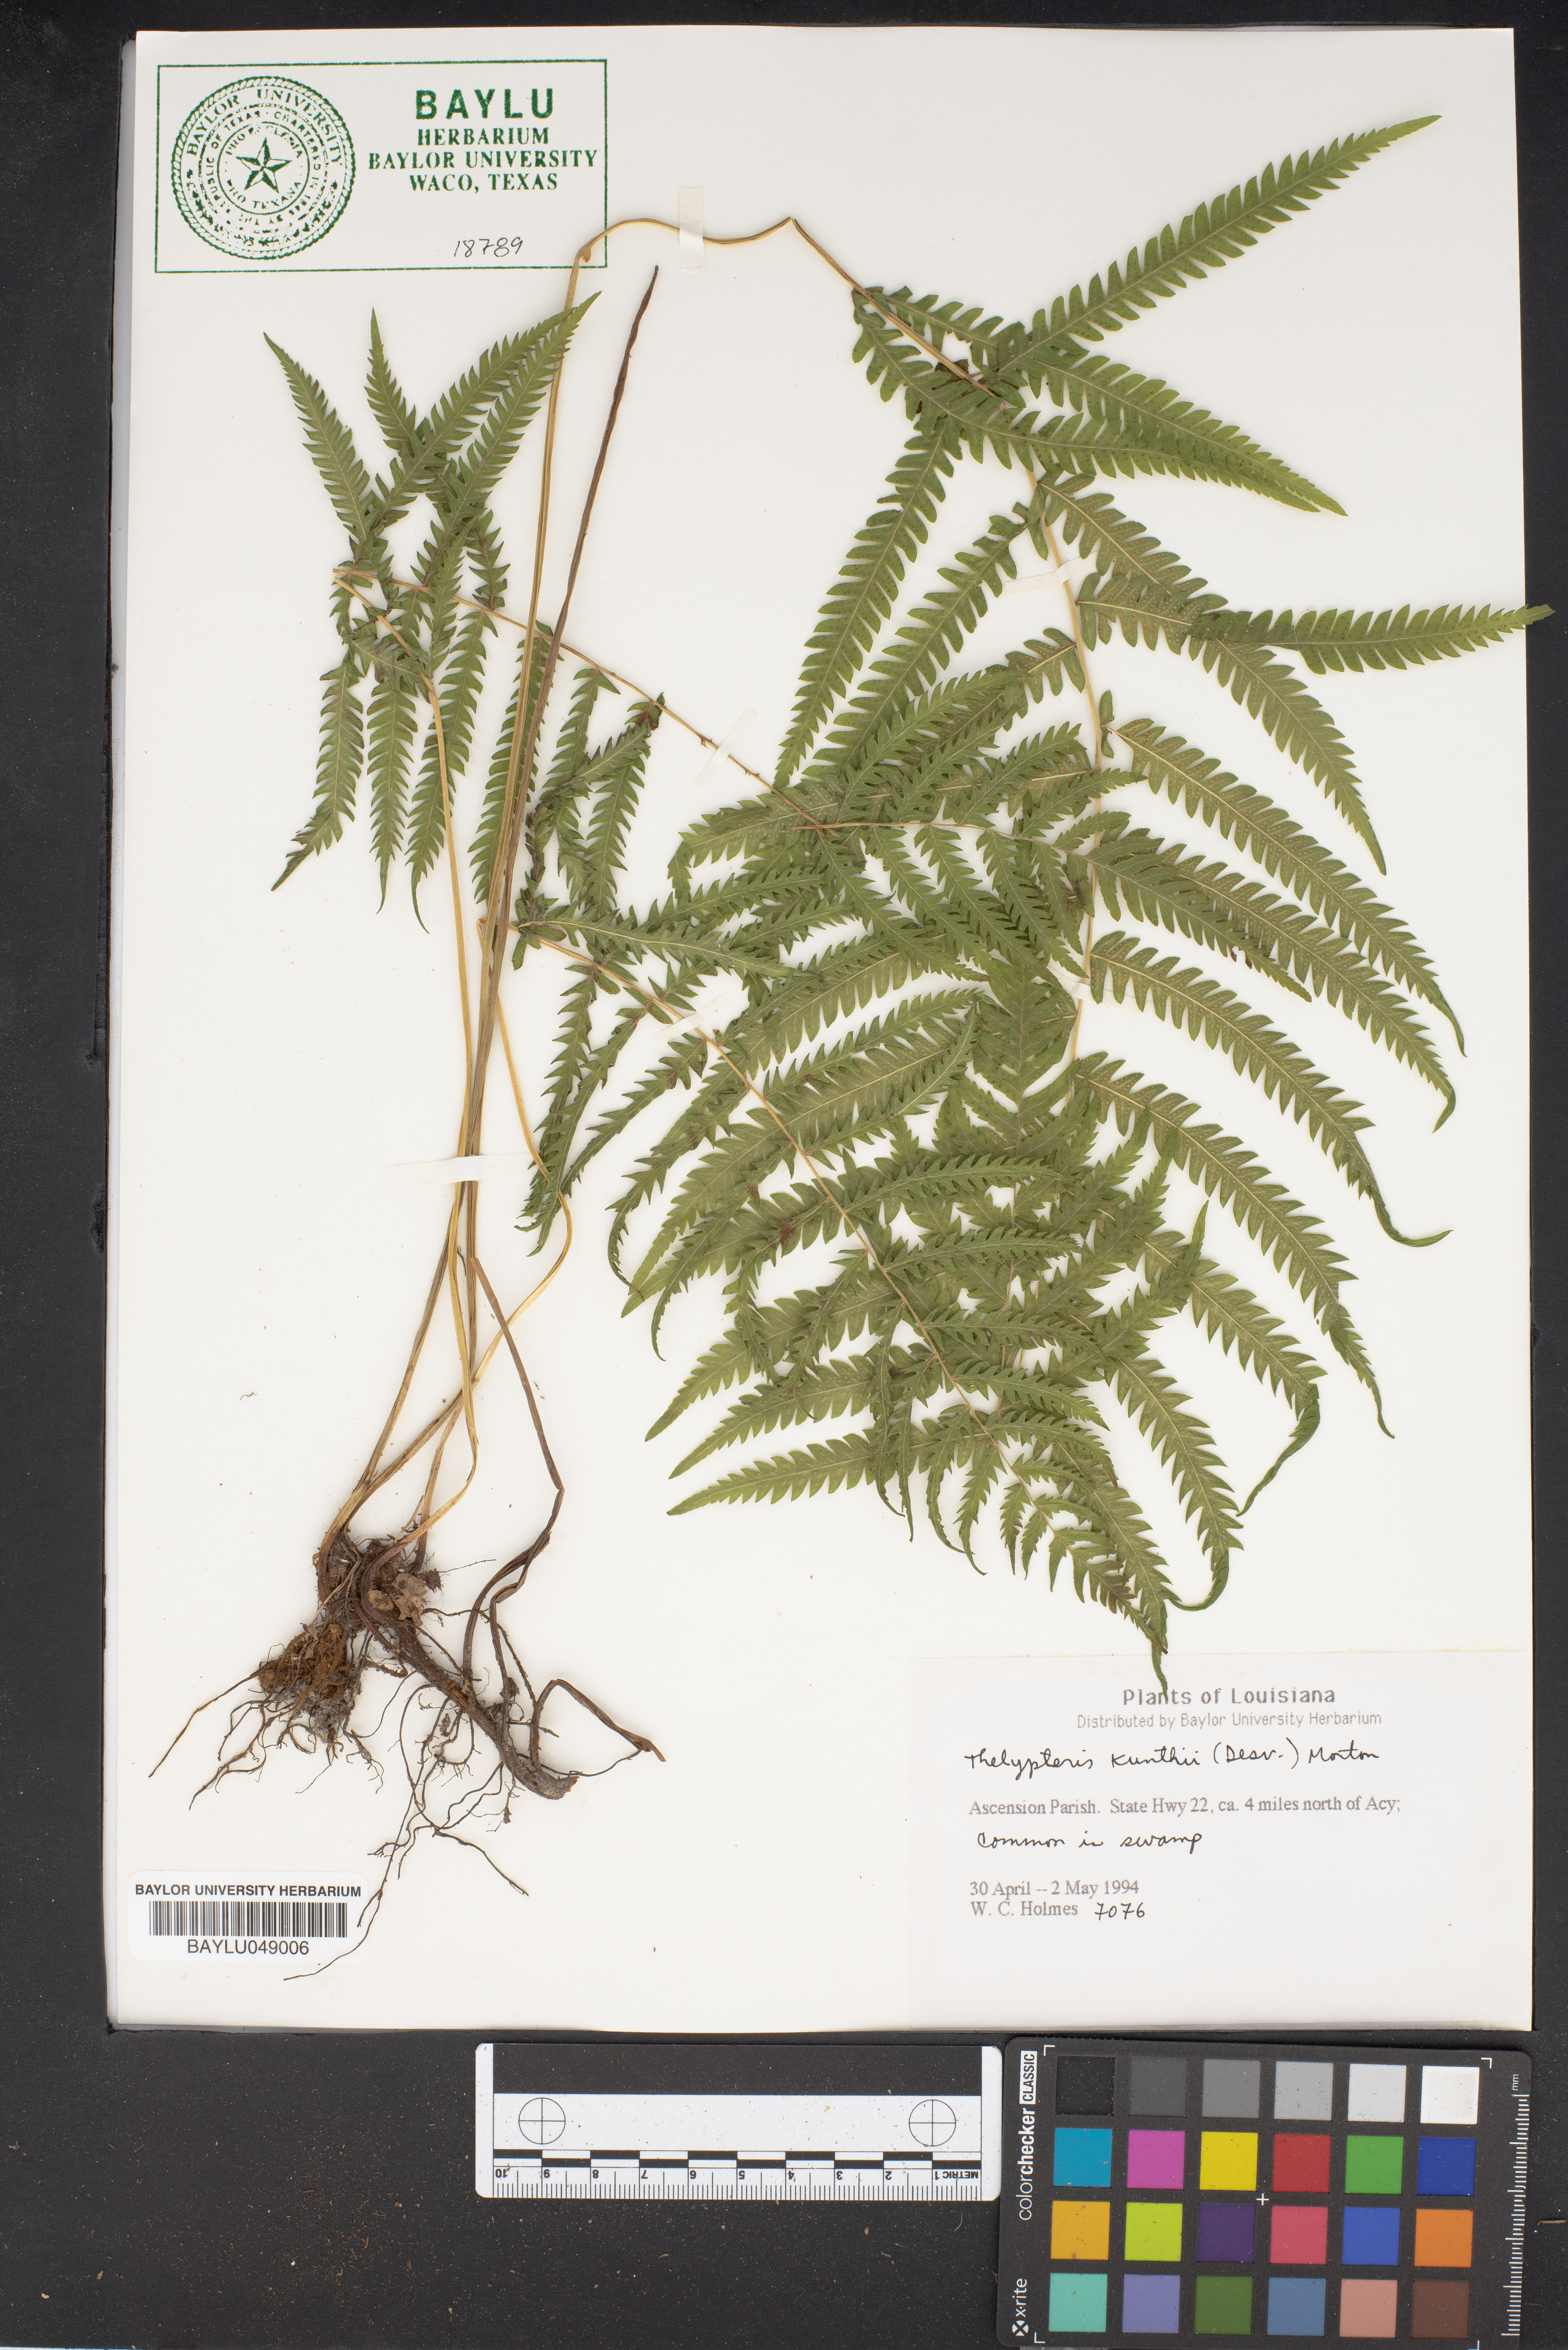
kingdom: Plantae
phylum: Tracheophyta
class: Polypodiopsida
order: Polypodiales
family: Thelypteridaceae
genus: Pelazoneuron
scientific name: Pelazoneuron kunthii
